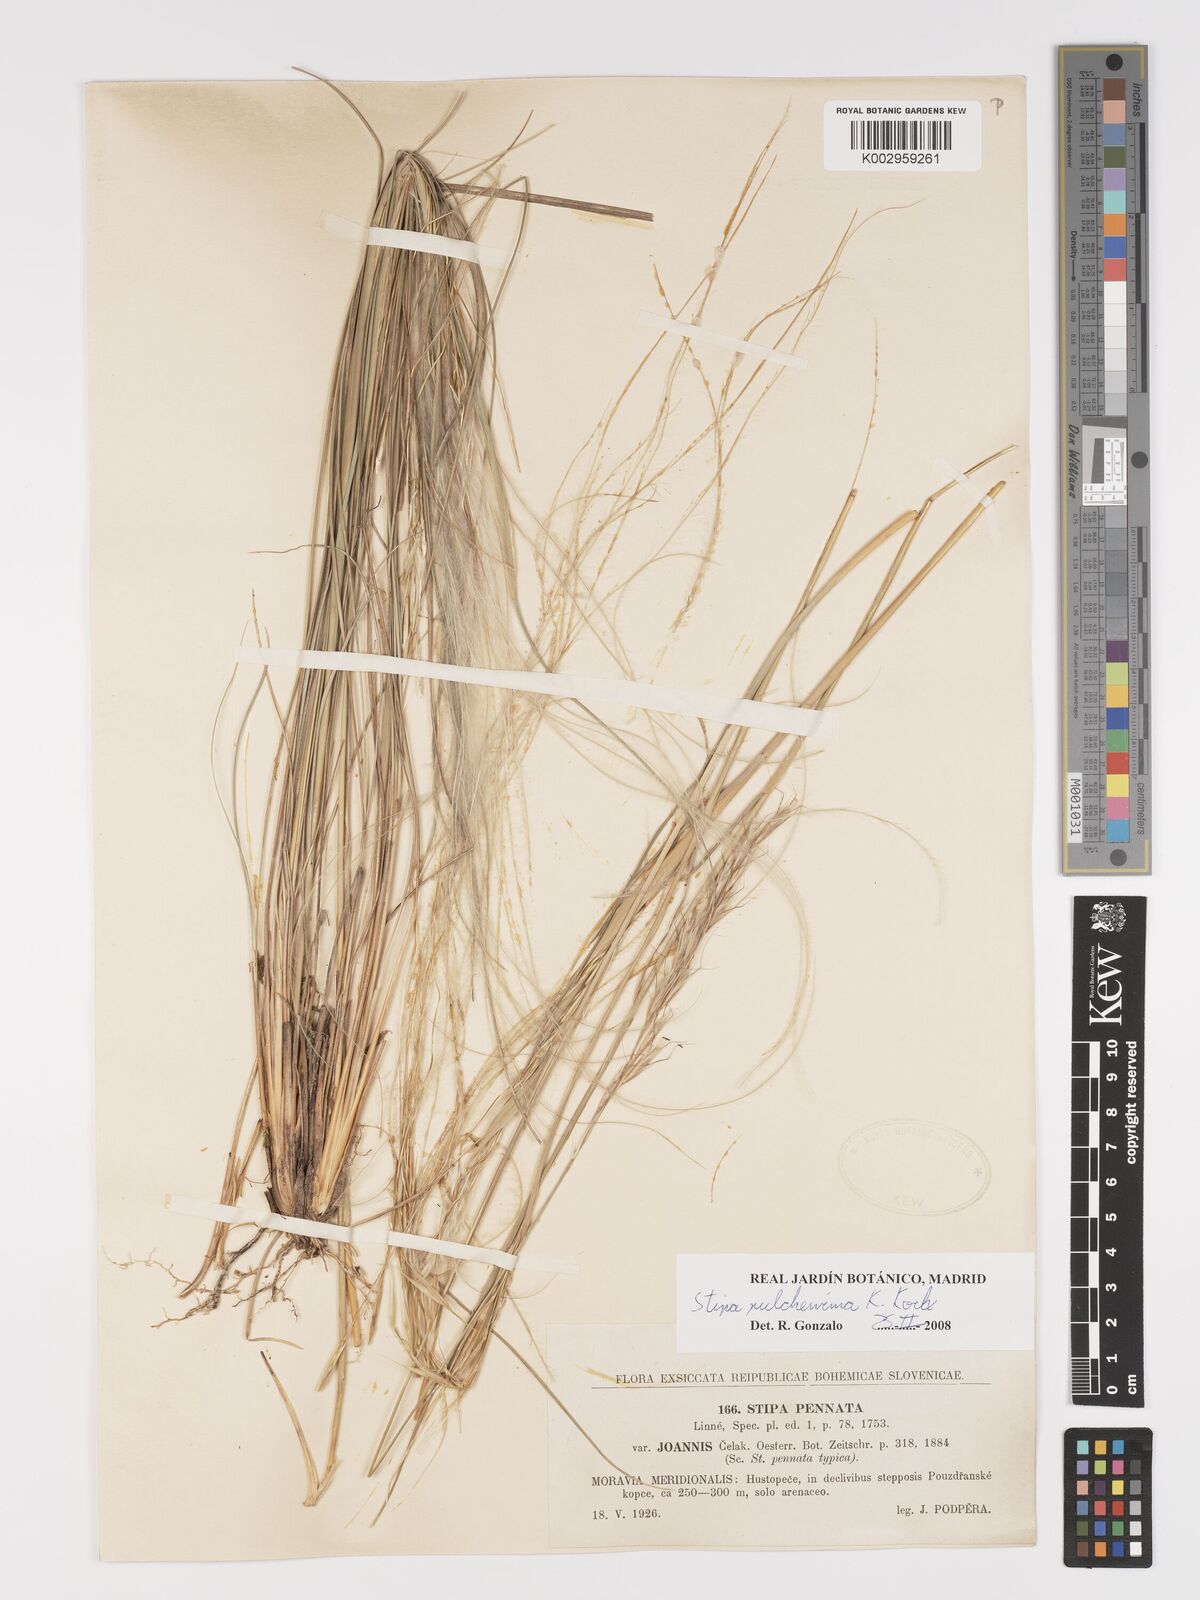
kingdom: Plantae
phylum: Tracheophyta
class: Liliopsida
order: Poales
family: Poaceae
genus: Stipa
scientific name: Stipa pulcherrima
